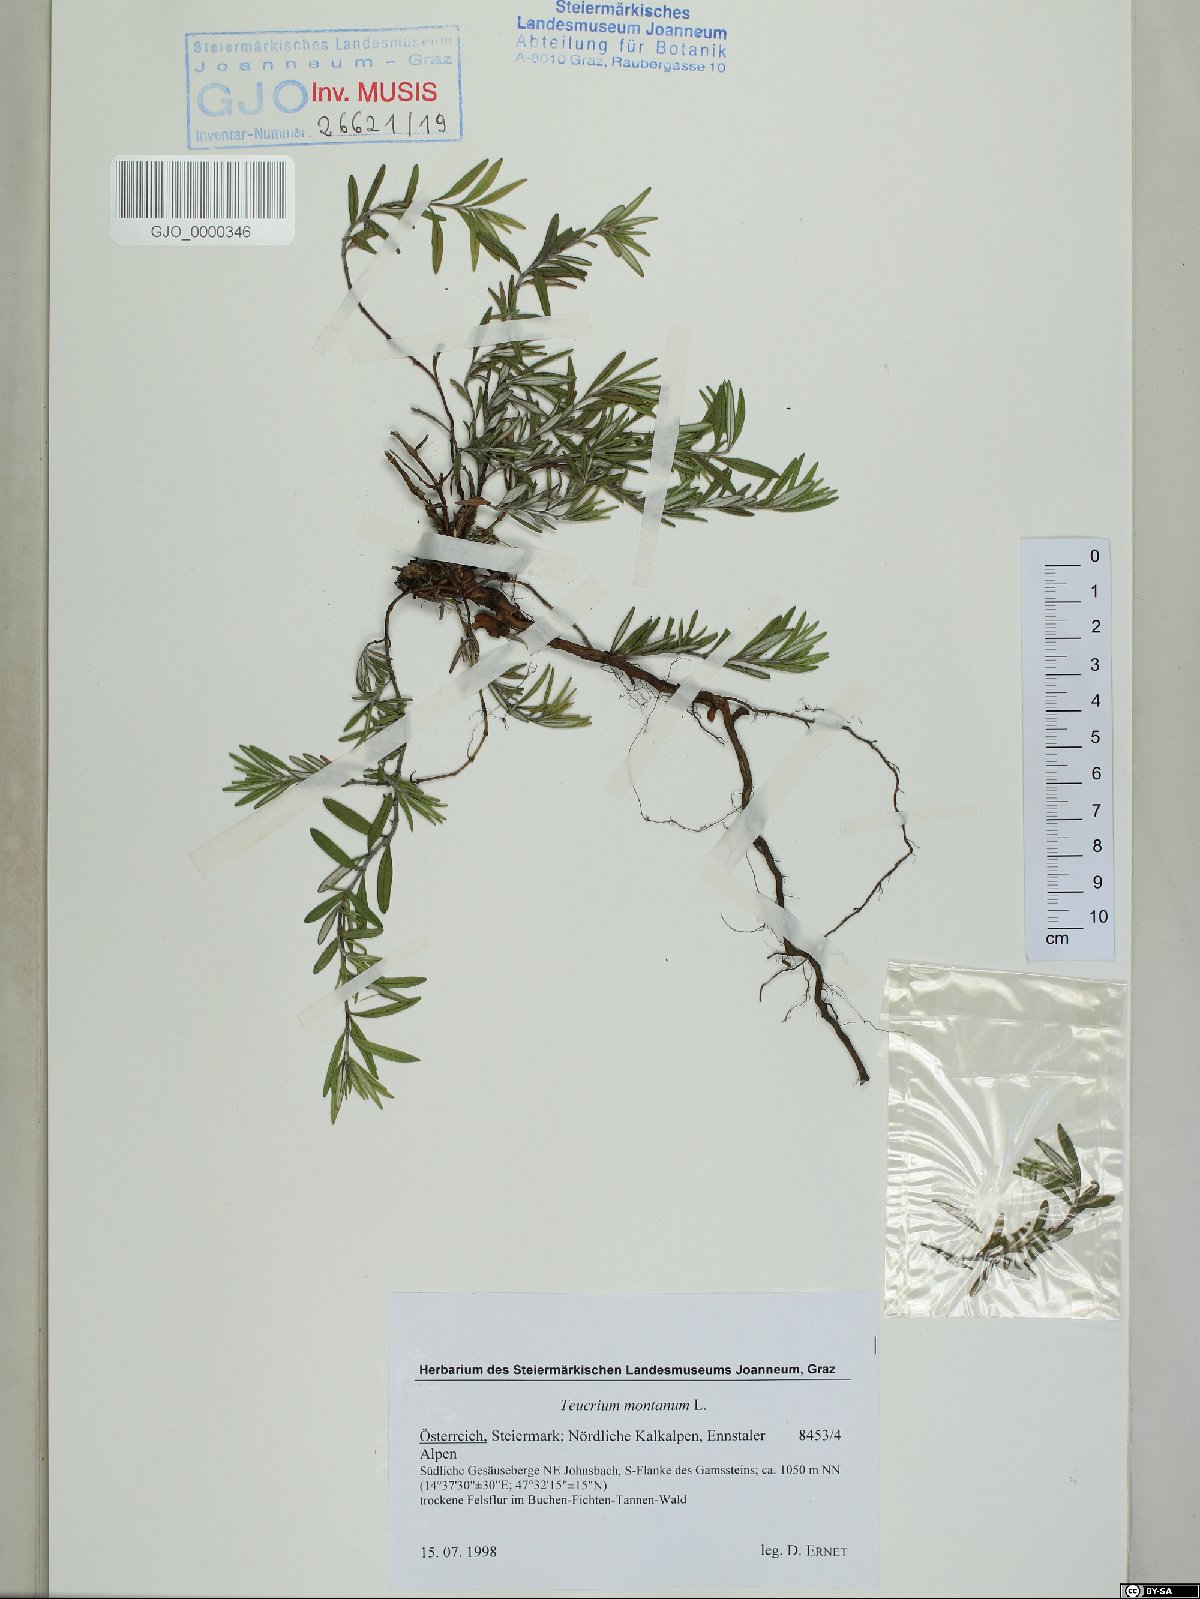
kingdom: Plantae
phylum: Tracheophyta
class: Magnoliopsida
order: Lamiales
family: Lamiaceae
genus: Teucrium
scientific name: Teucrium montanum
